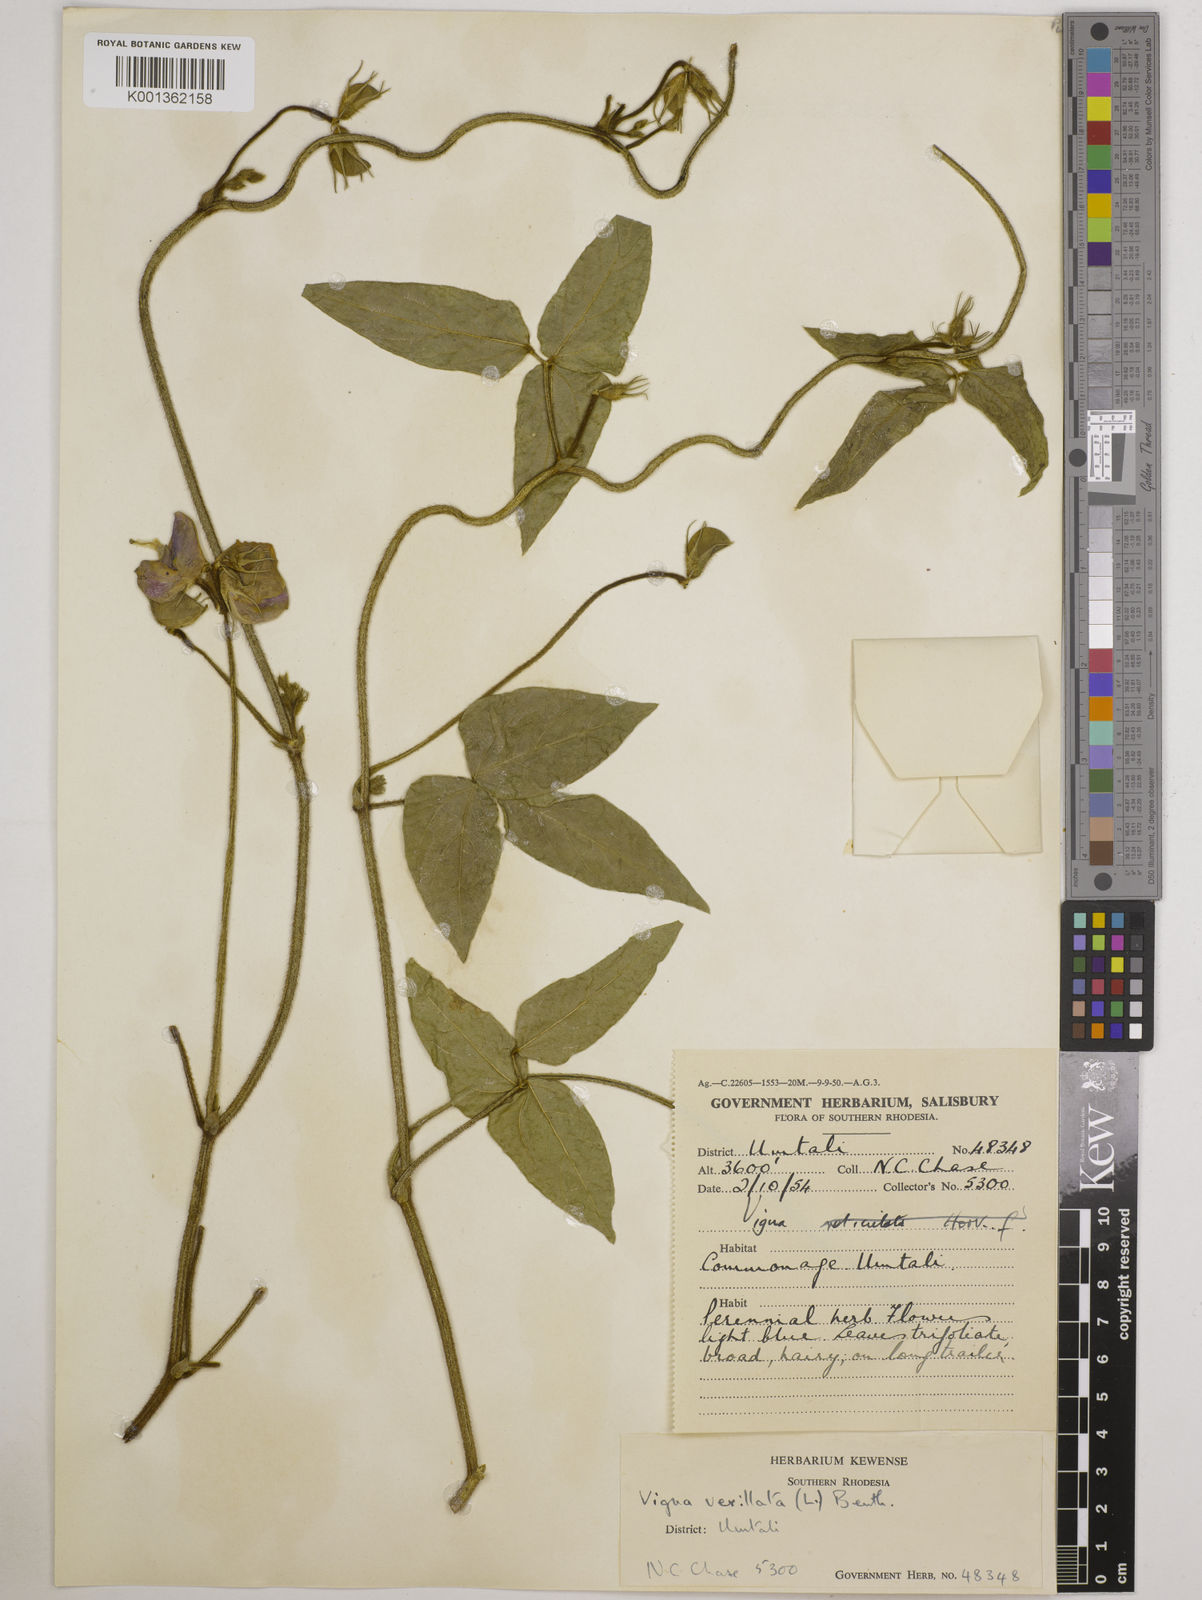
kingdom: Plantae
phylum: Tracheophyta
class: Magnoliopsida
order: Fabales
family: Fabaceae
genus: Vigna
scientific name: Vigna vexillata
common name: Zombi pea
